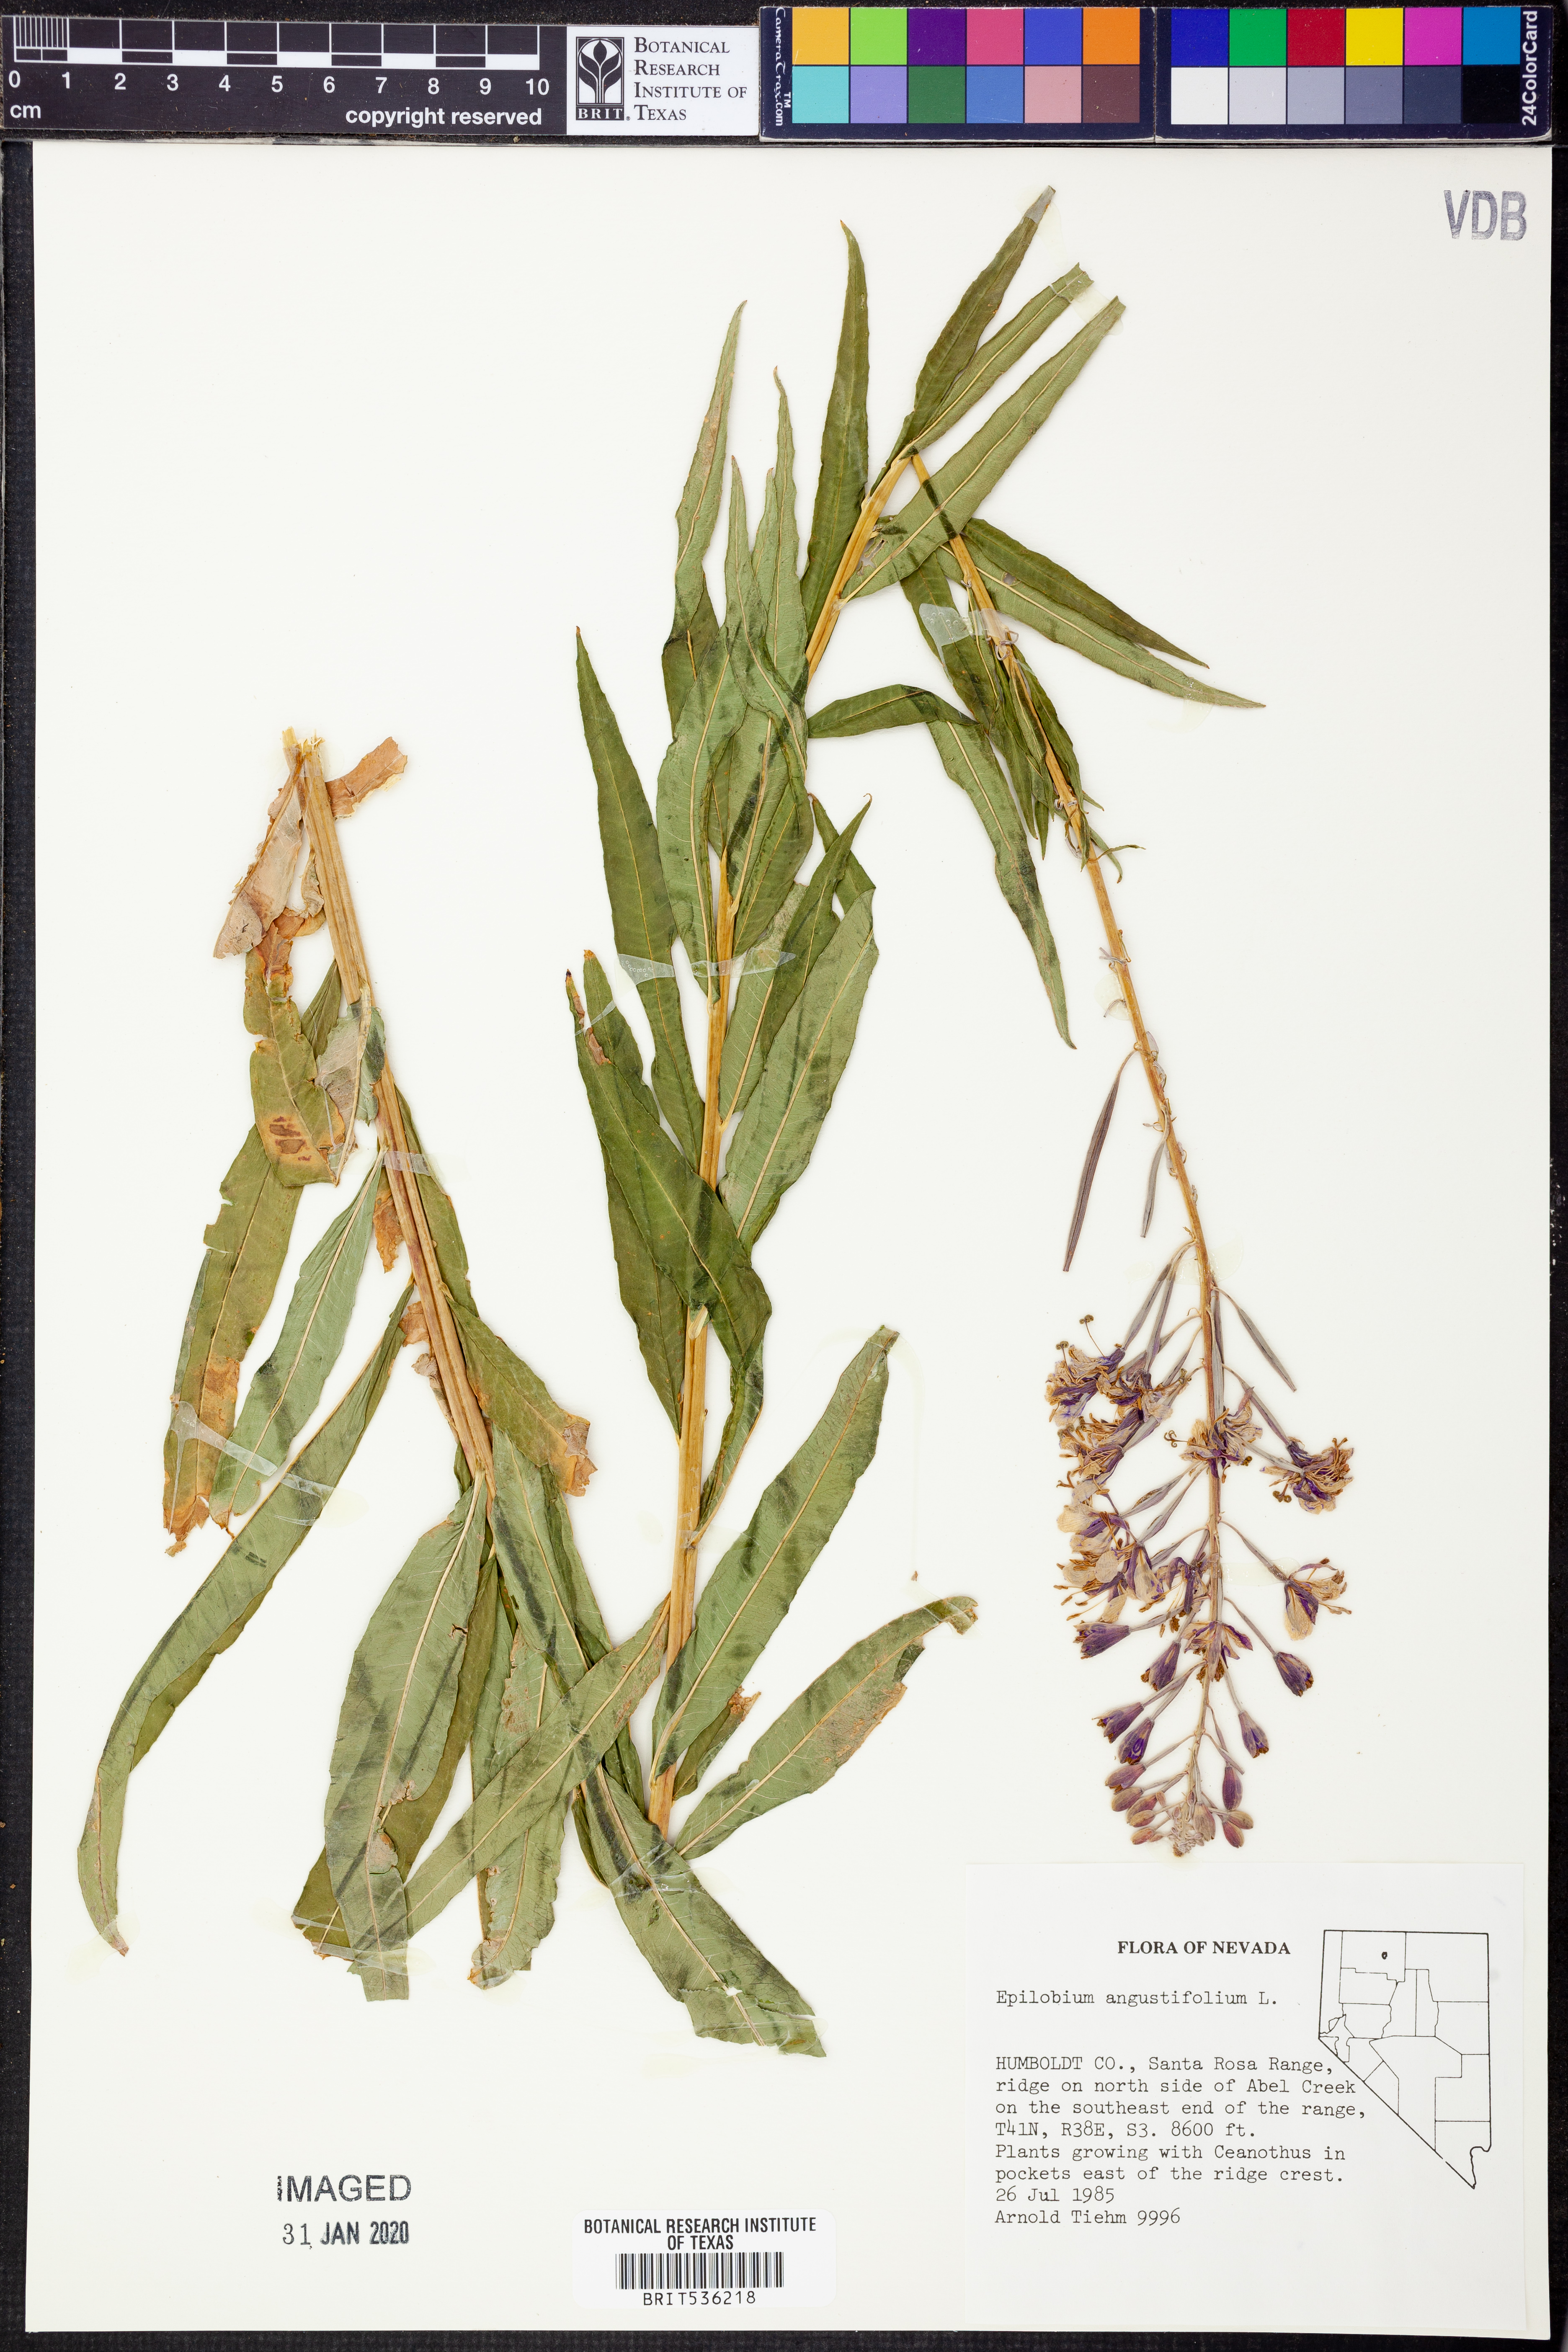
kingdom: Plantae
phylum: Tracheophyta
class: Magnoliopsida
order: Myrtales
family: Onagraceae
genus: Chamaenerion
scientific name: Chamaenerion dodonaei
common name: Rosemary-leaved willowherb
